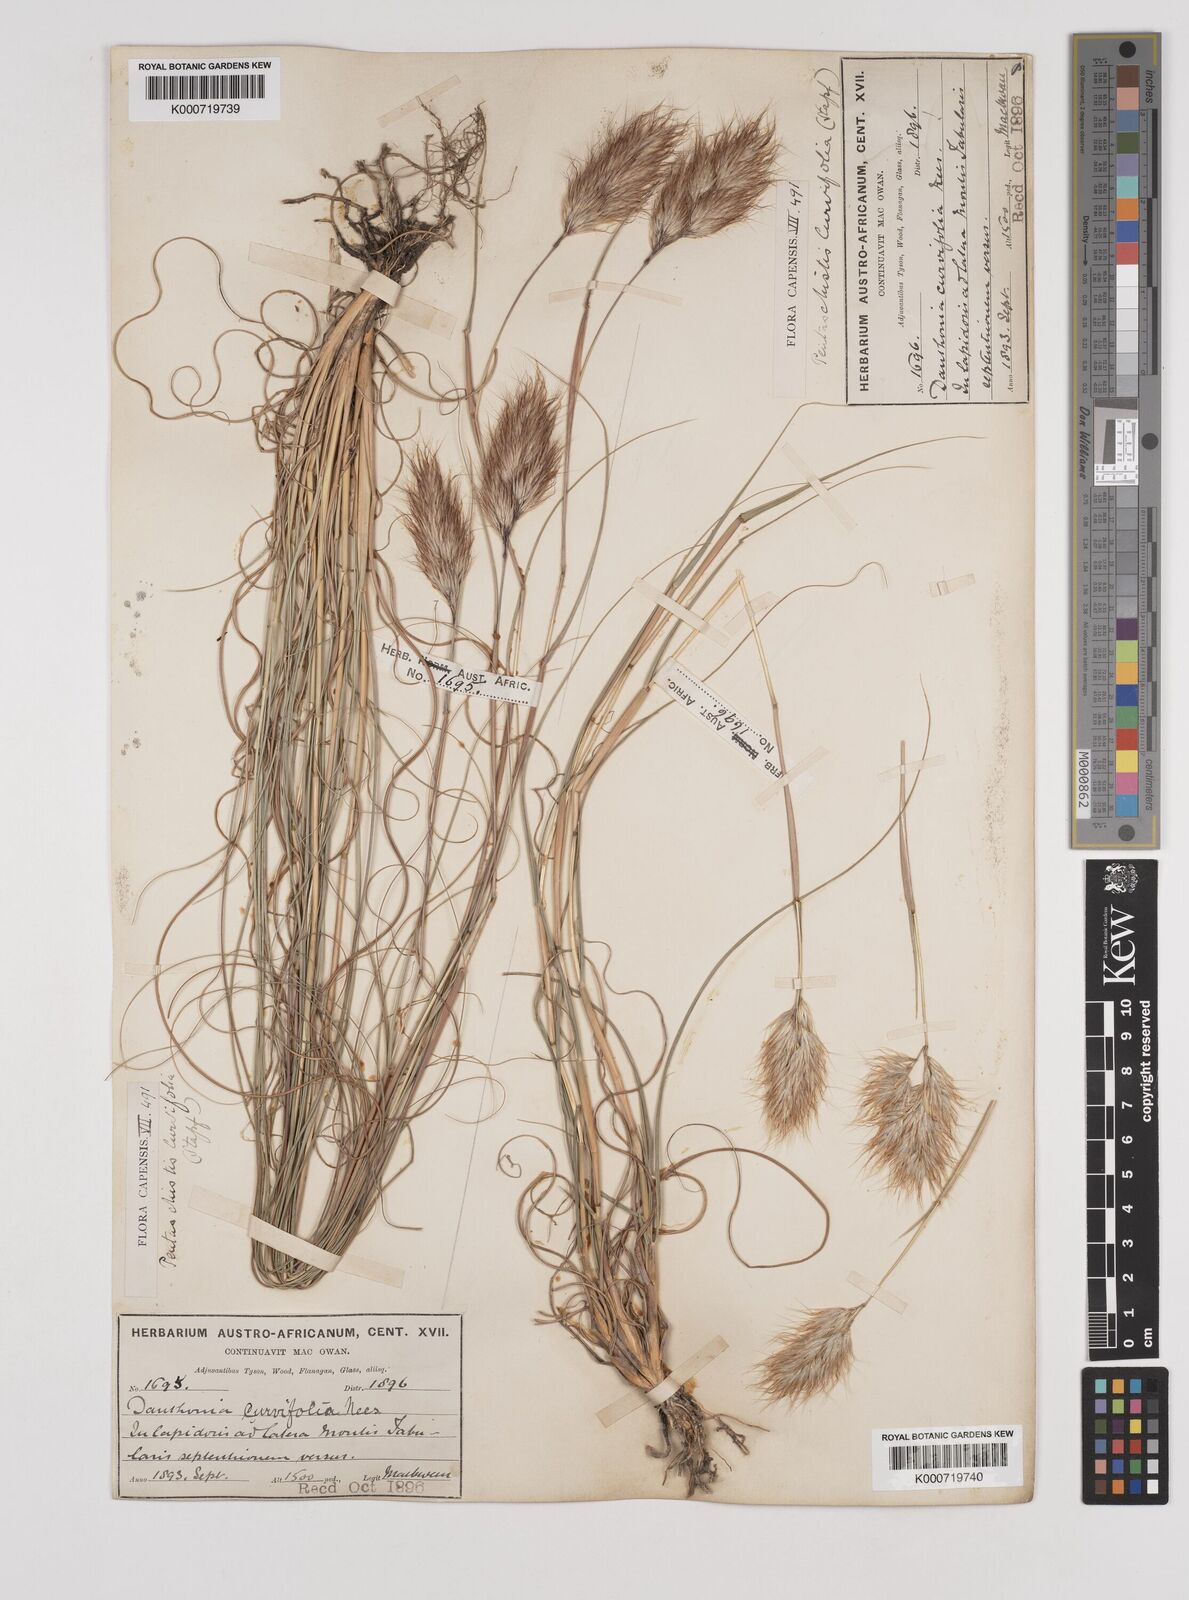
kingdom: Plantae
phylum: Tracheophyta
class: Liliopsida
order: Poales
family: Poaceae
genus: Pentameris
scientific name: Pentameris curvifolia
